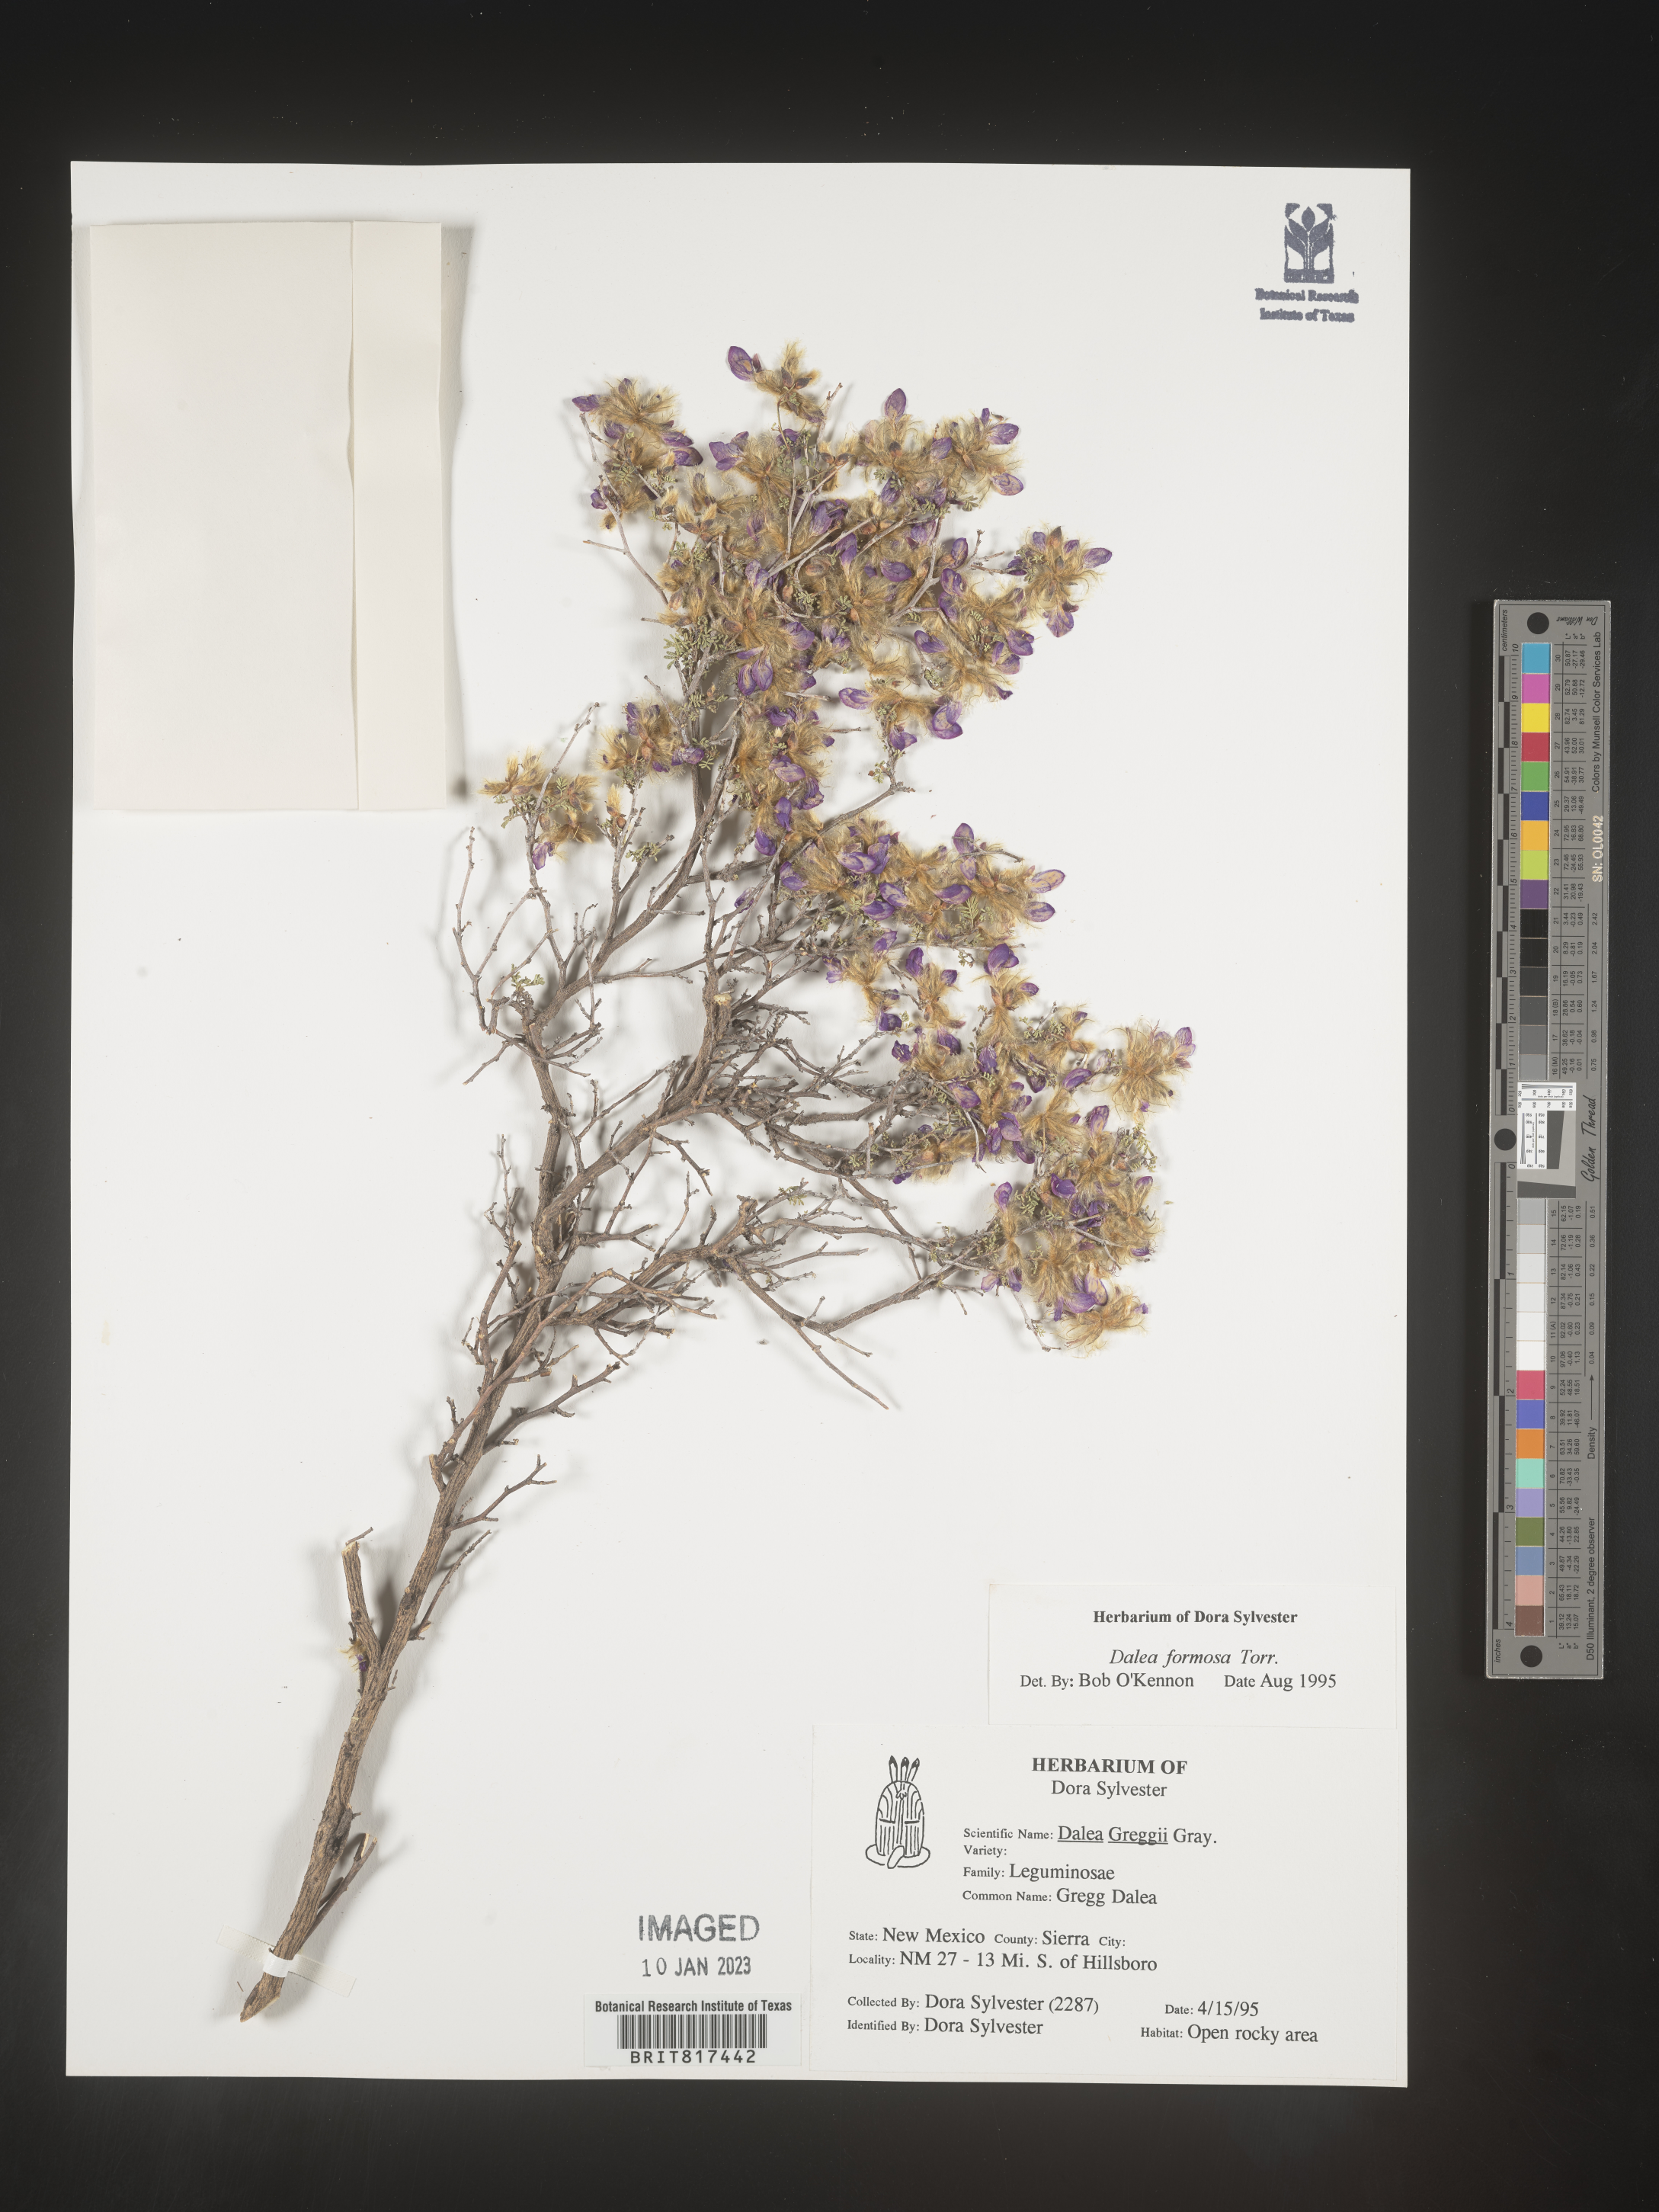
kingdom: Plantae
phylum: Tracheophyta
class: Magnoliopsida
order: Fabales
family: Fabaceae
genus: Dalea
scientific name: Dalea formosa
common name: Feather-plume dalea
